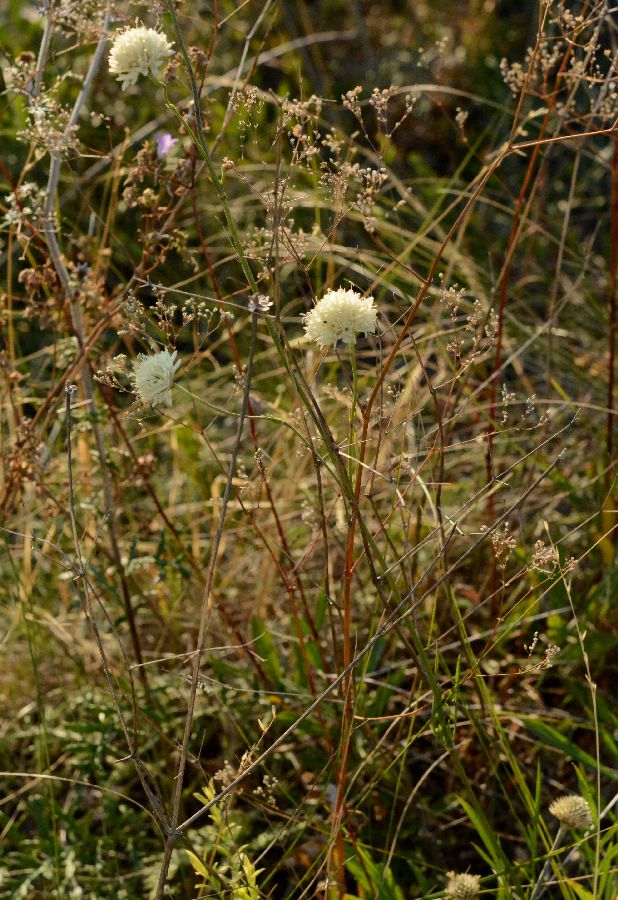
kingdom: Plantae
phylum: Tracheophyta
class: Magnoliopsida
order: Dipsacales
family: Caprifoliaceae
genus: Cephalaria
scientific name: Cephalaria uralensis
